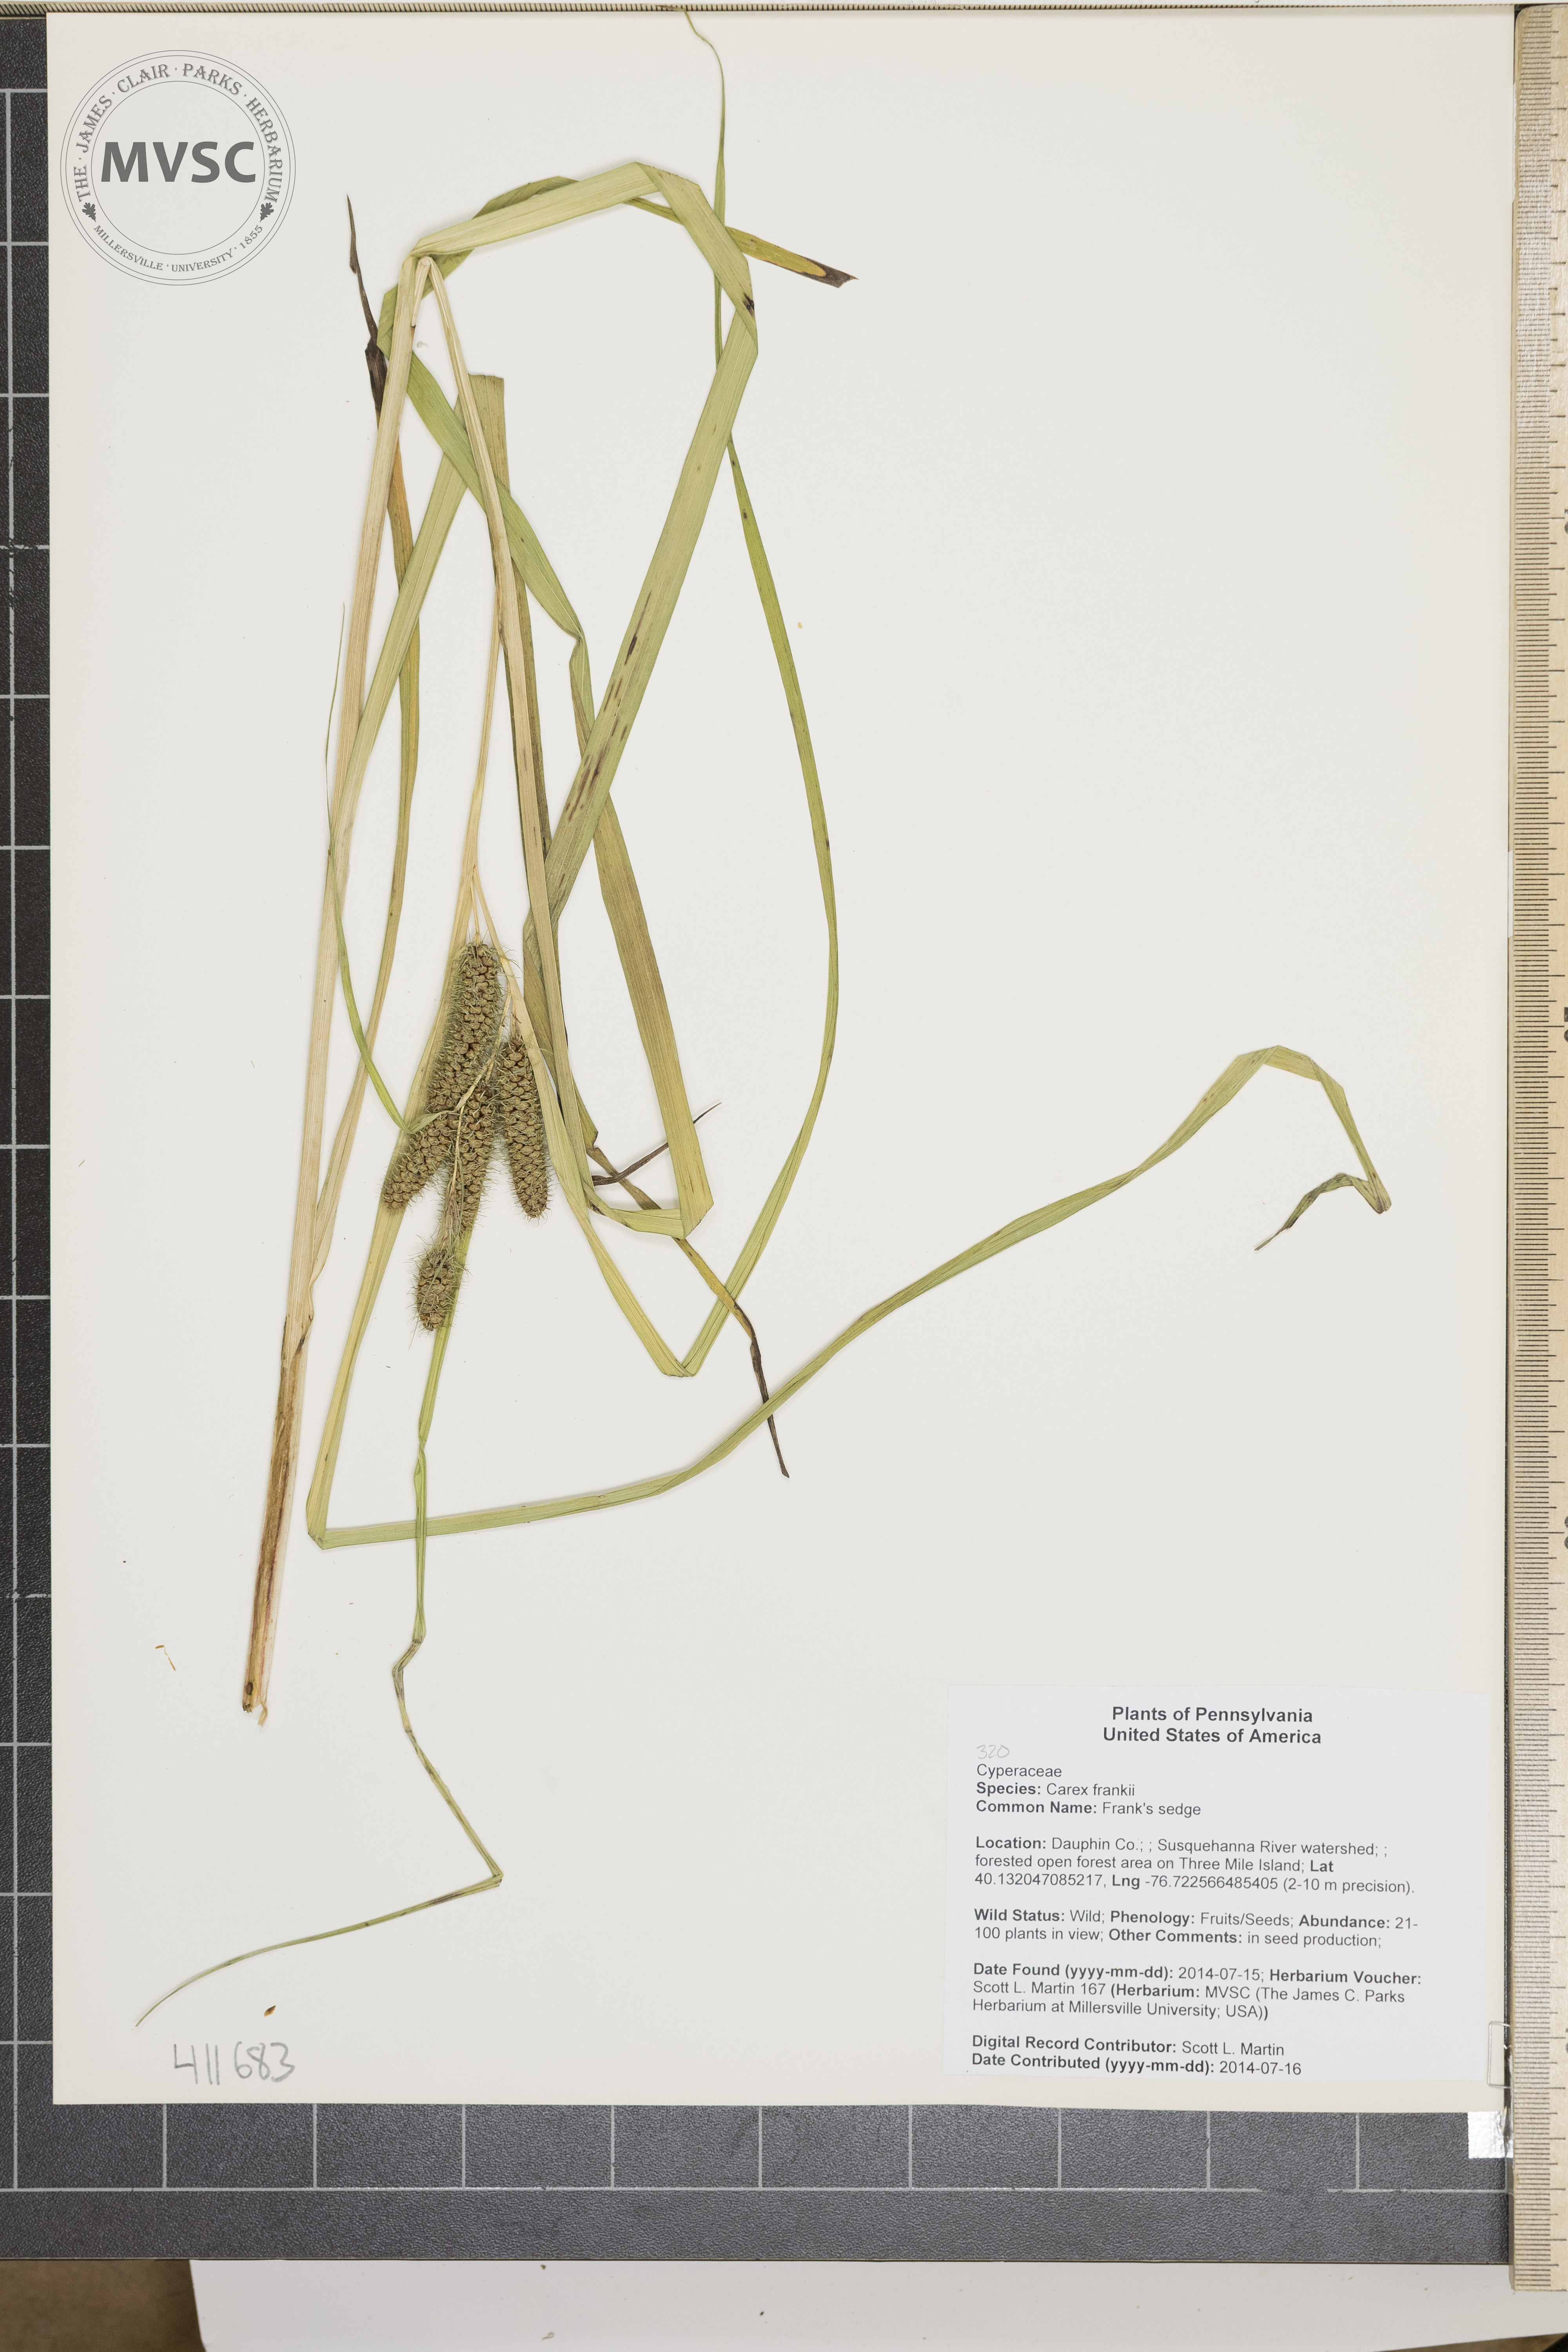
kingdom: Plantae
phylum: Tracheophyta
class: Liliopsida
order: Poales
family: Cyperaceae
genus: Carex
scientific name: Carex frankii
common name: Frank's sedge
